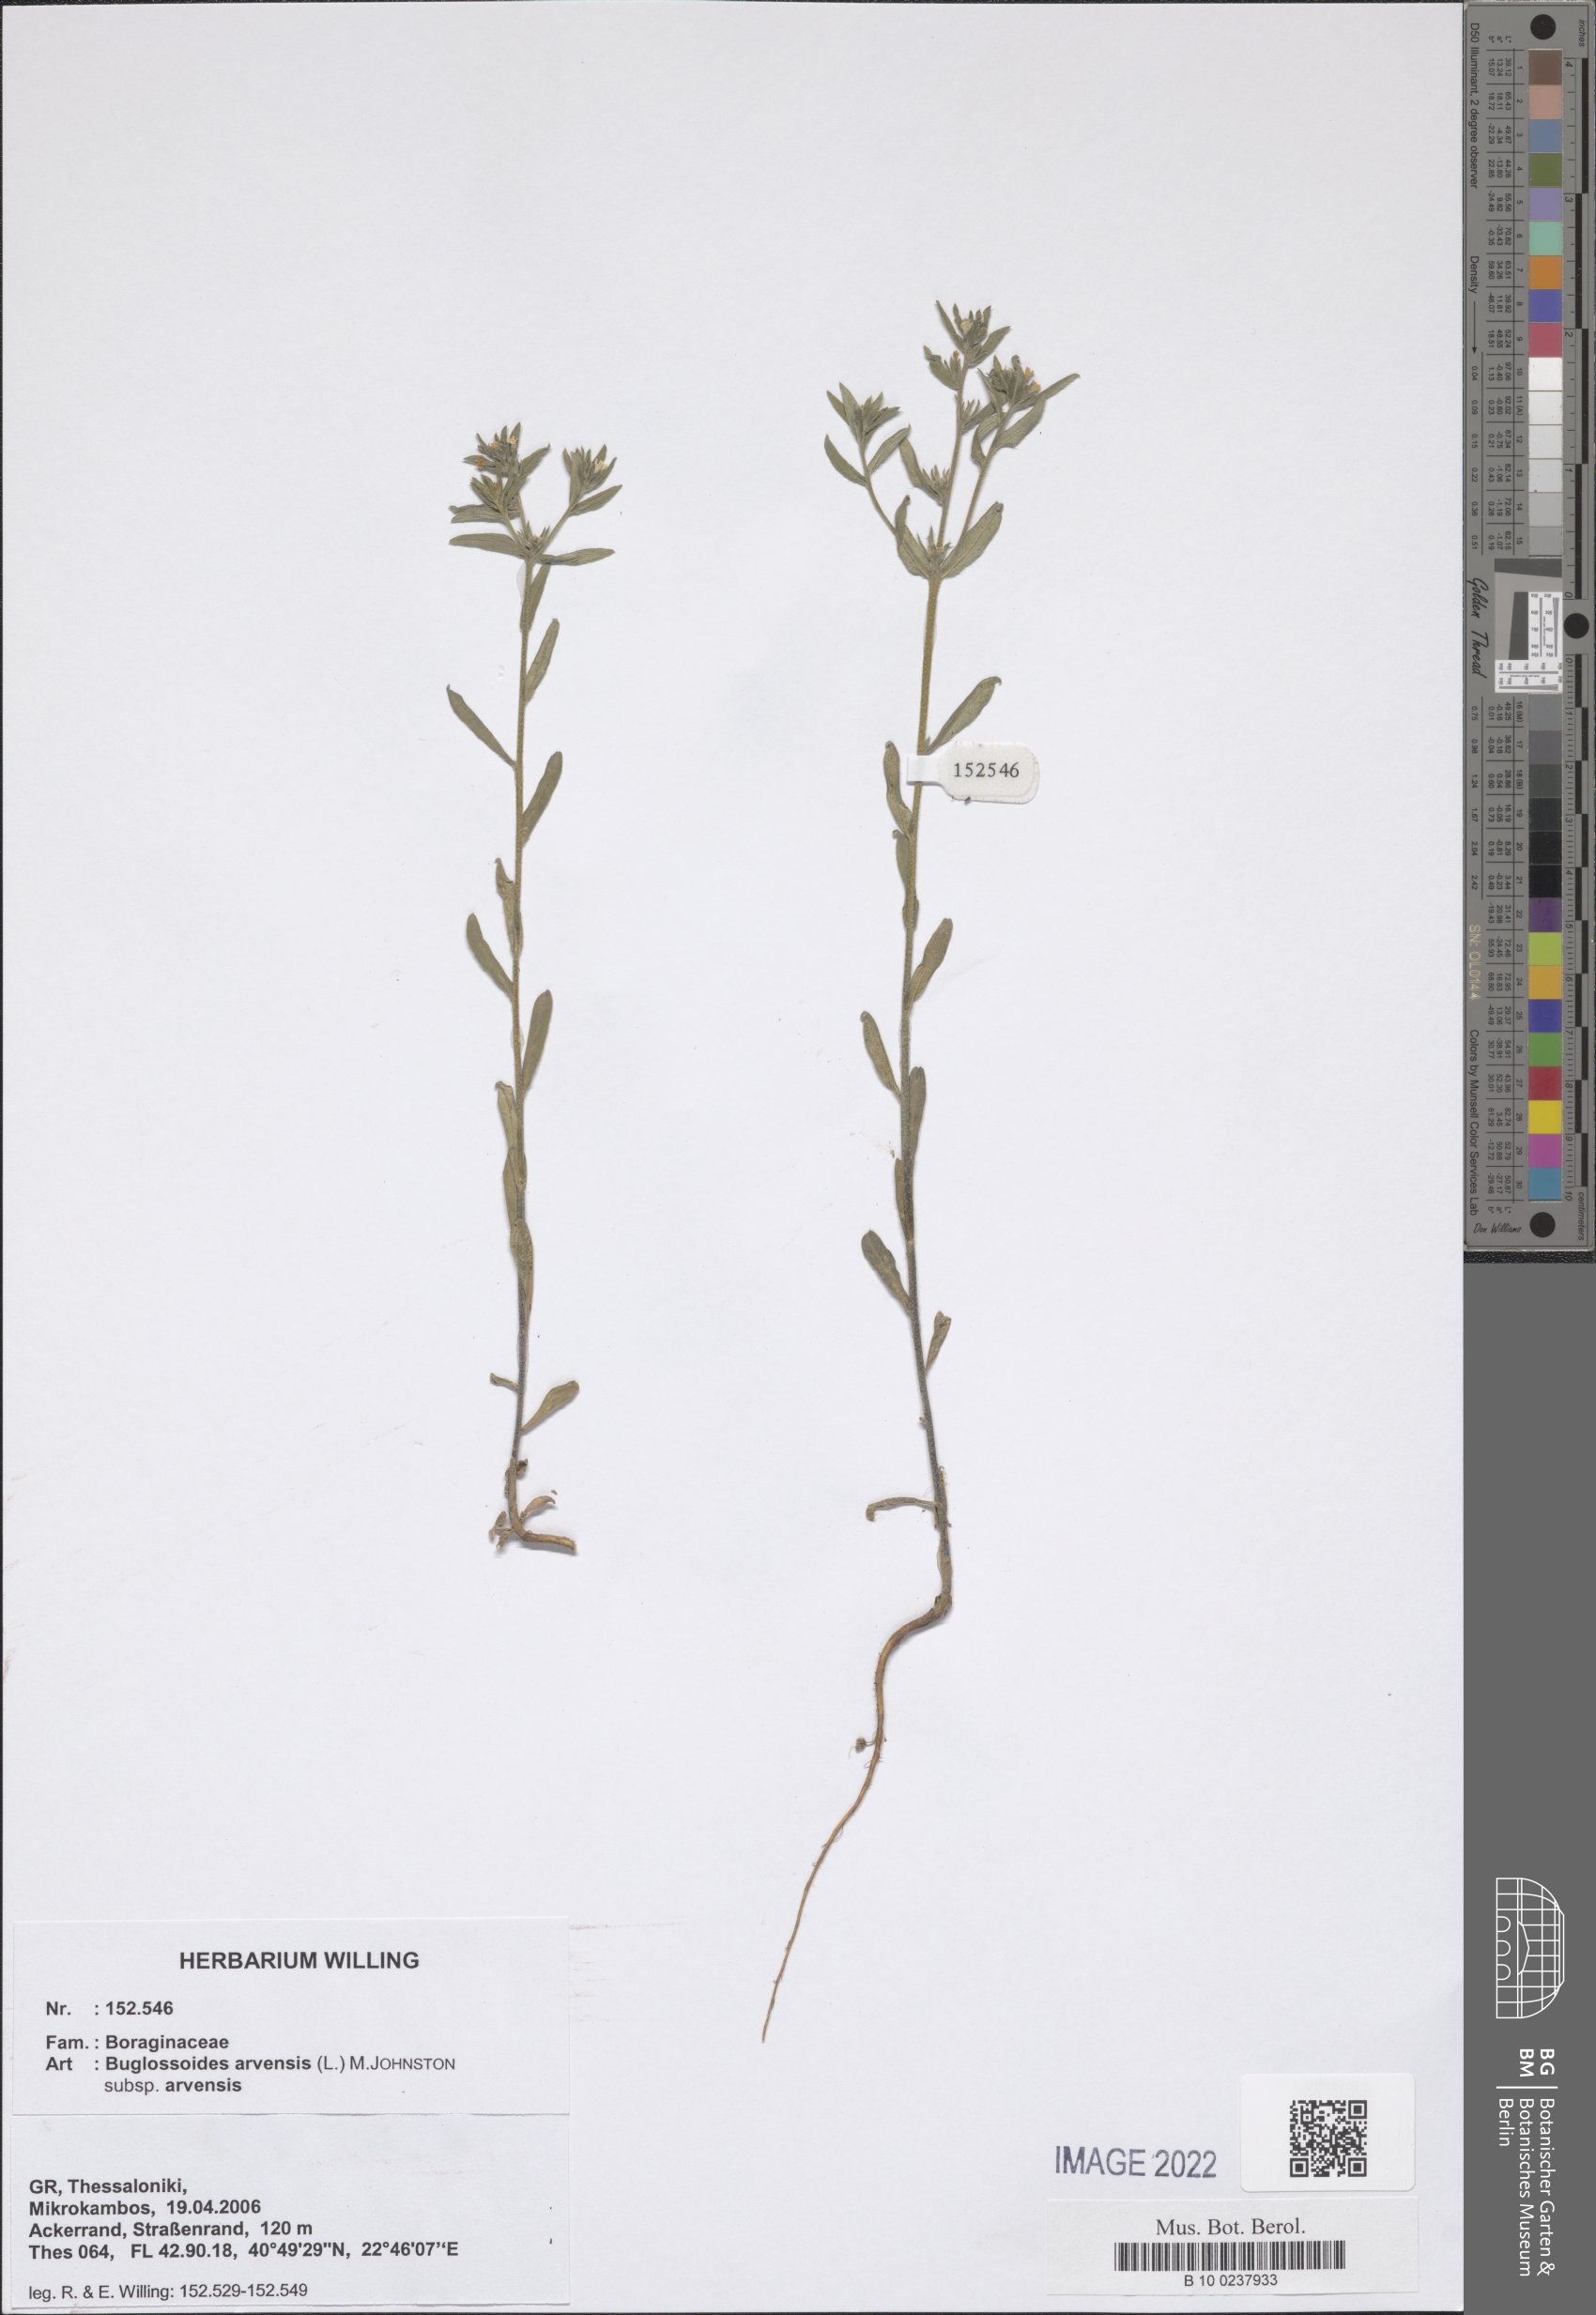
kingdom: Plantae
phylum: Tracheophyta
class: Magnoliopsida
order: Boraginales
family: Boraginaceae
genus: Buglossoides
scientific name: Buglossoides arvensis
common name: Corn gromwell
